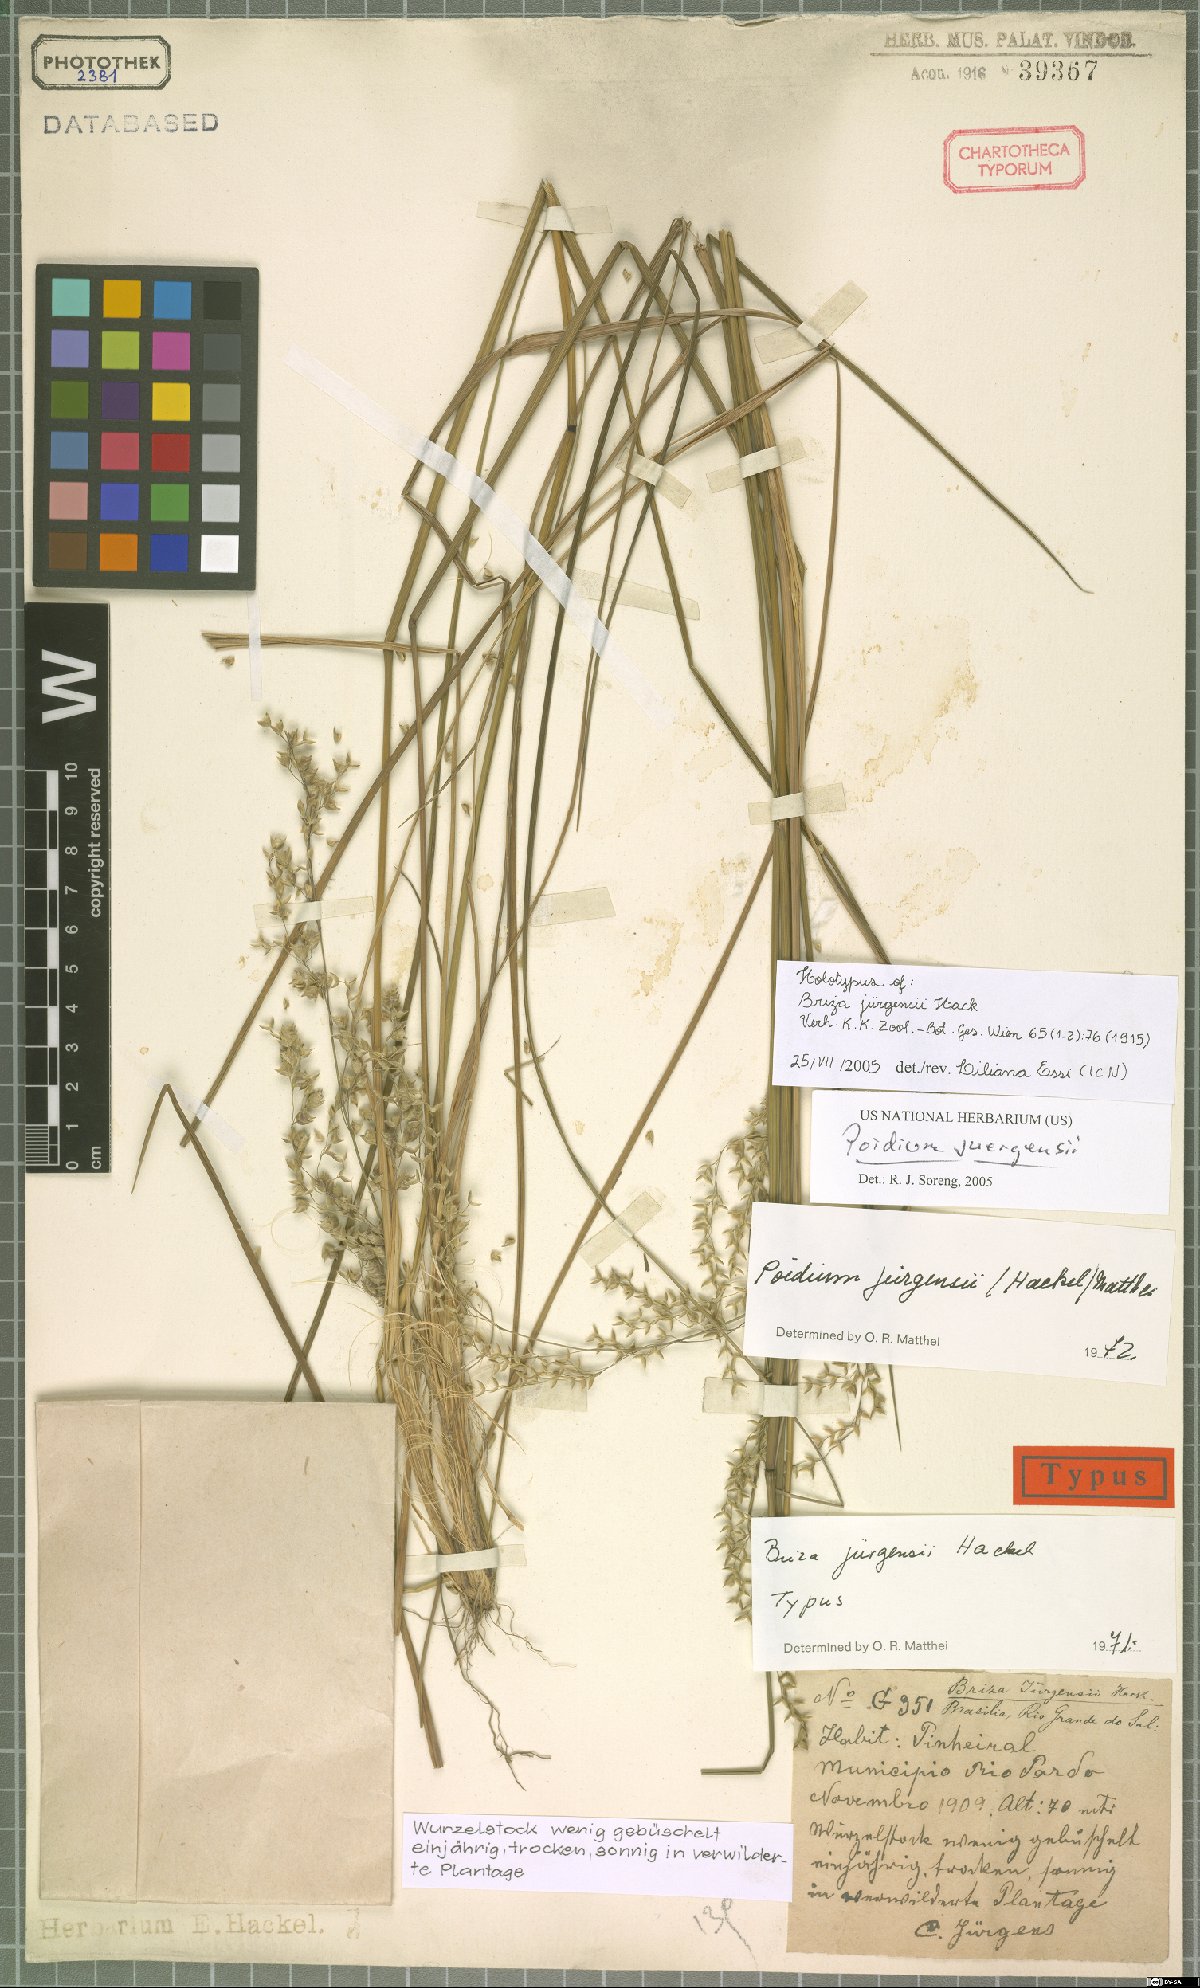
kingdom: Plantae
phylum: Tracheophyta
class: Liliopsida
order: Poales
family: Poaceae
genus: Poidium
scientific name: Poidium juergensii
